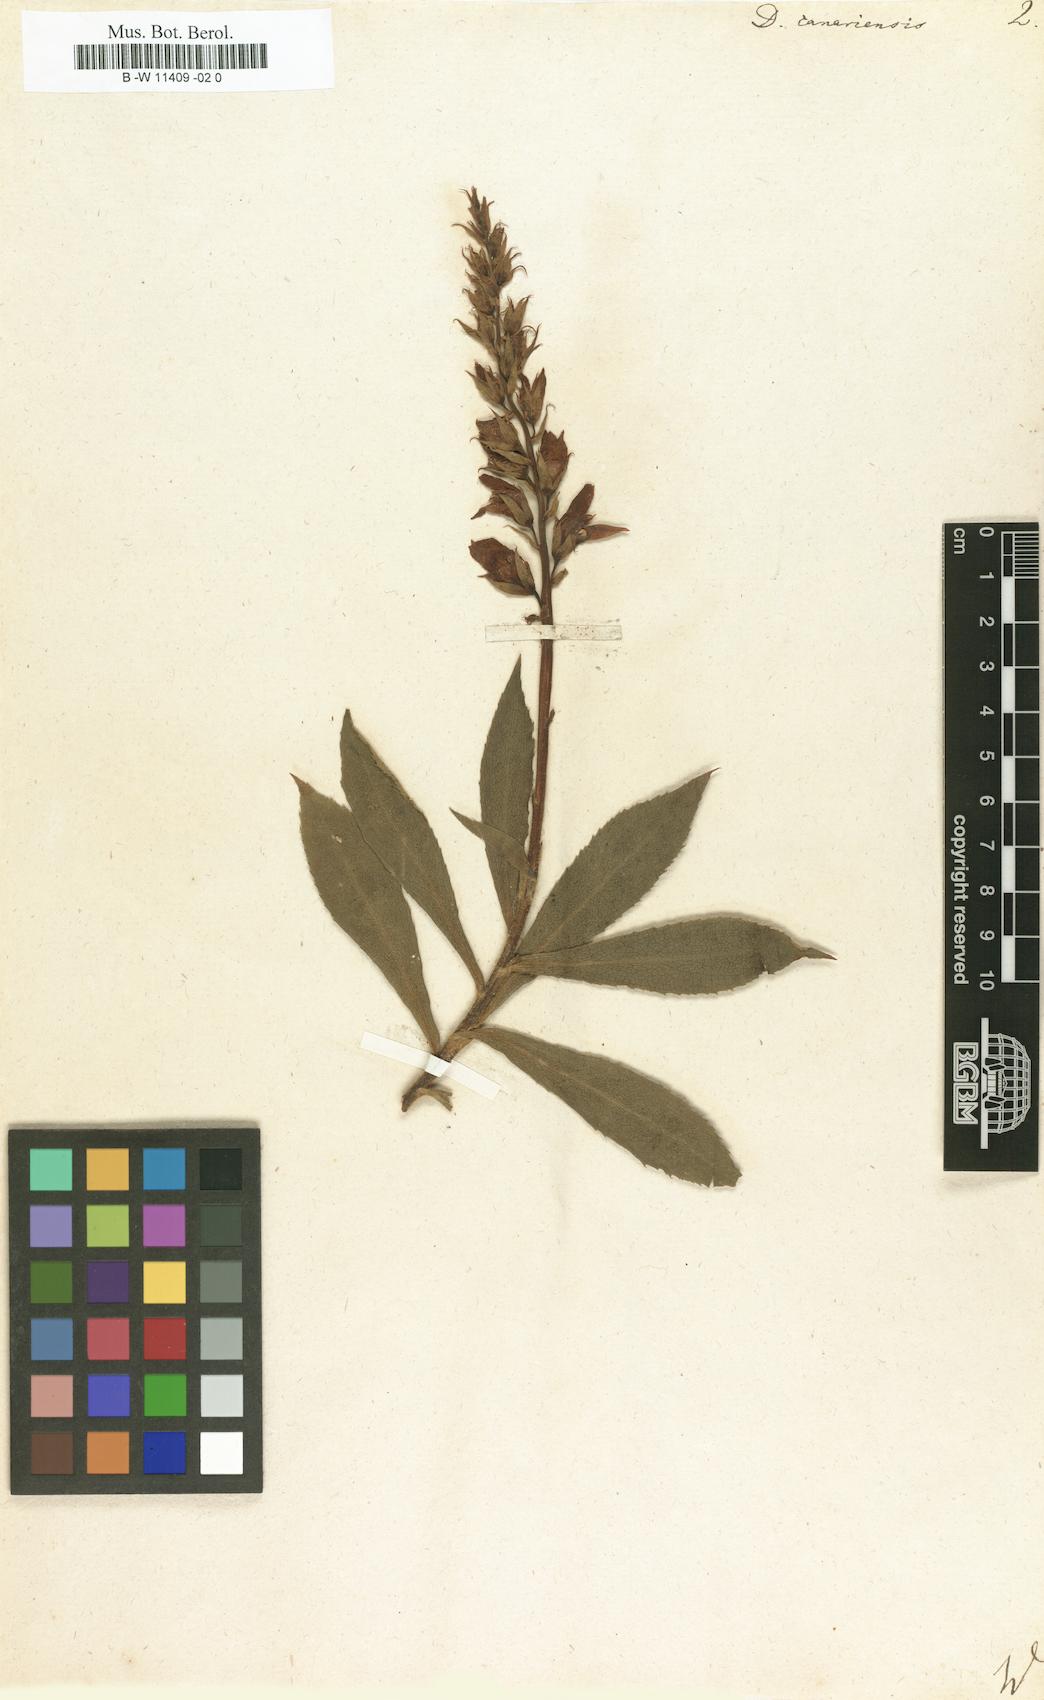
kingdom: Plantae
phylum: Tracheophyta
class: Magnoliopsida
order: Lamiales
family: Plantaginaceae
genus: Digitalis
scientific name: Digitalis canariensis
